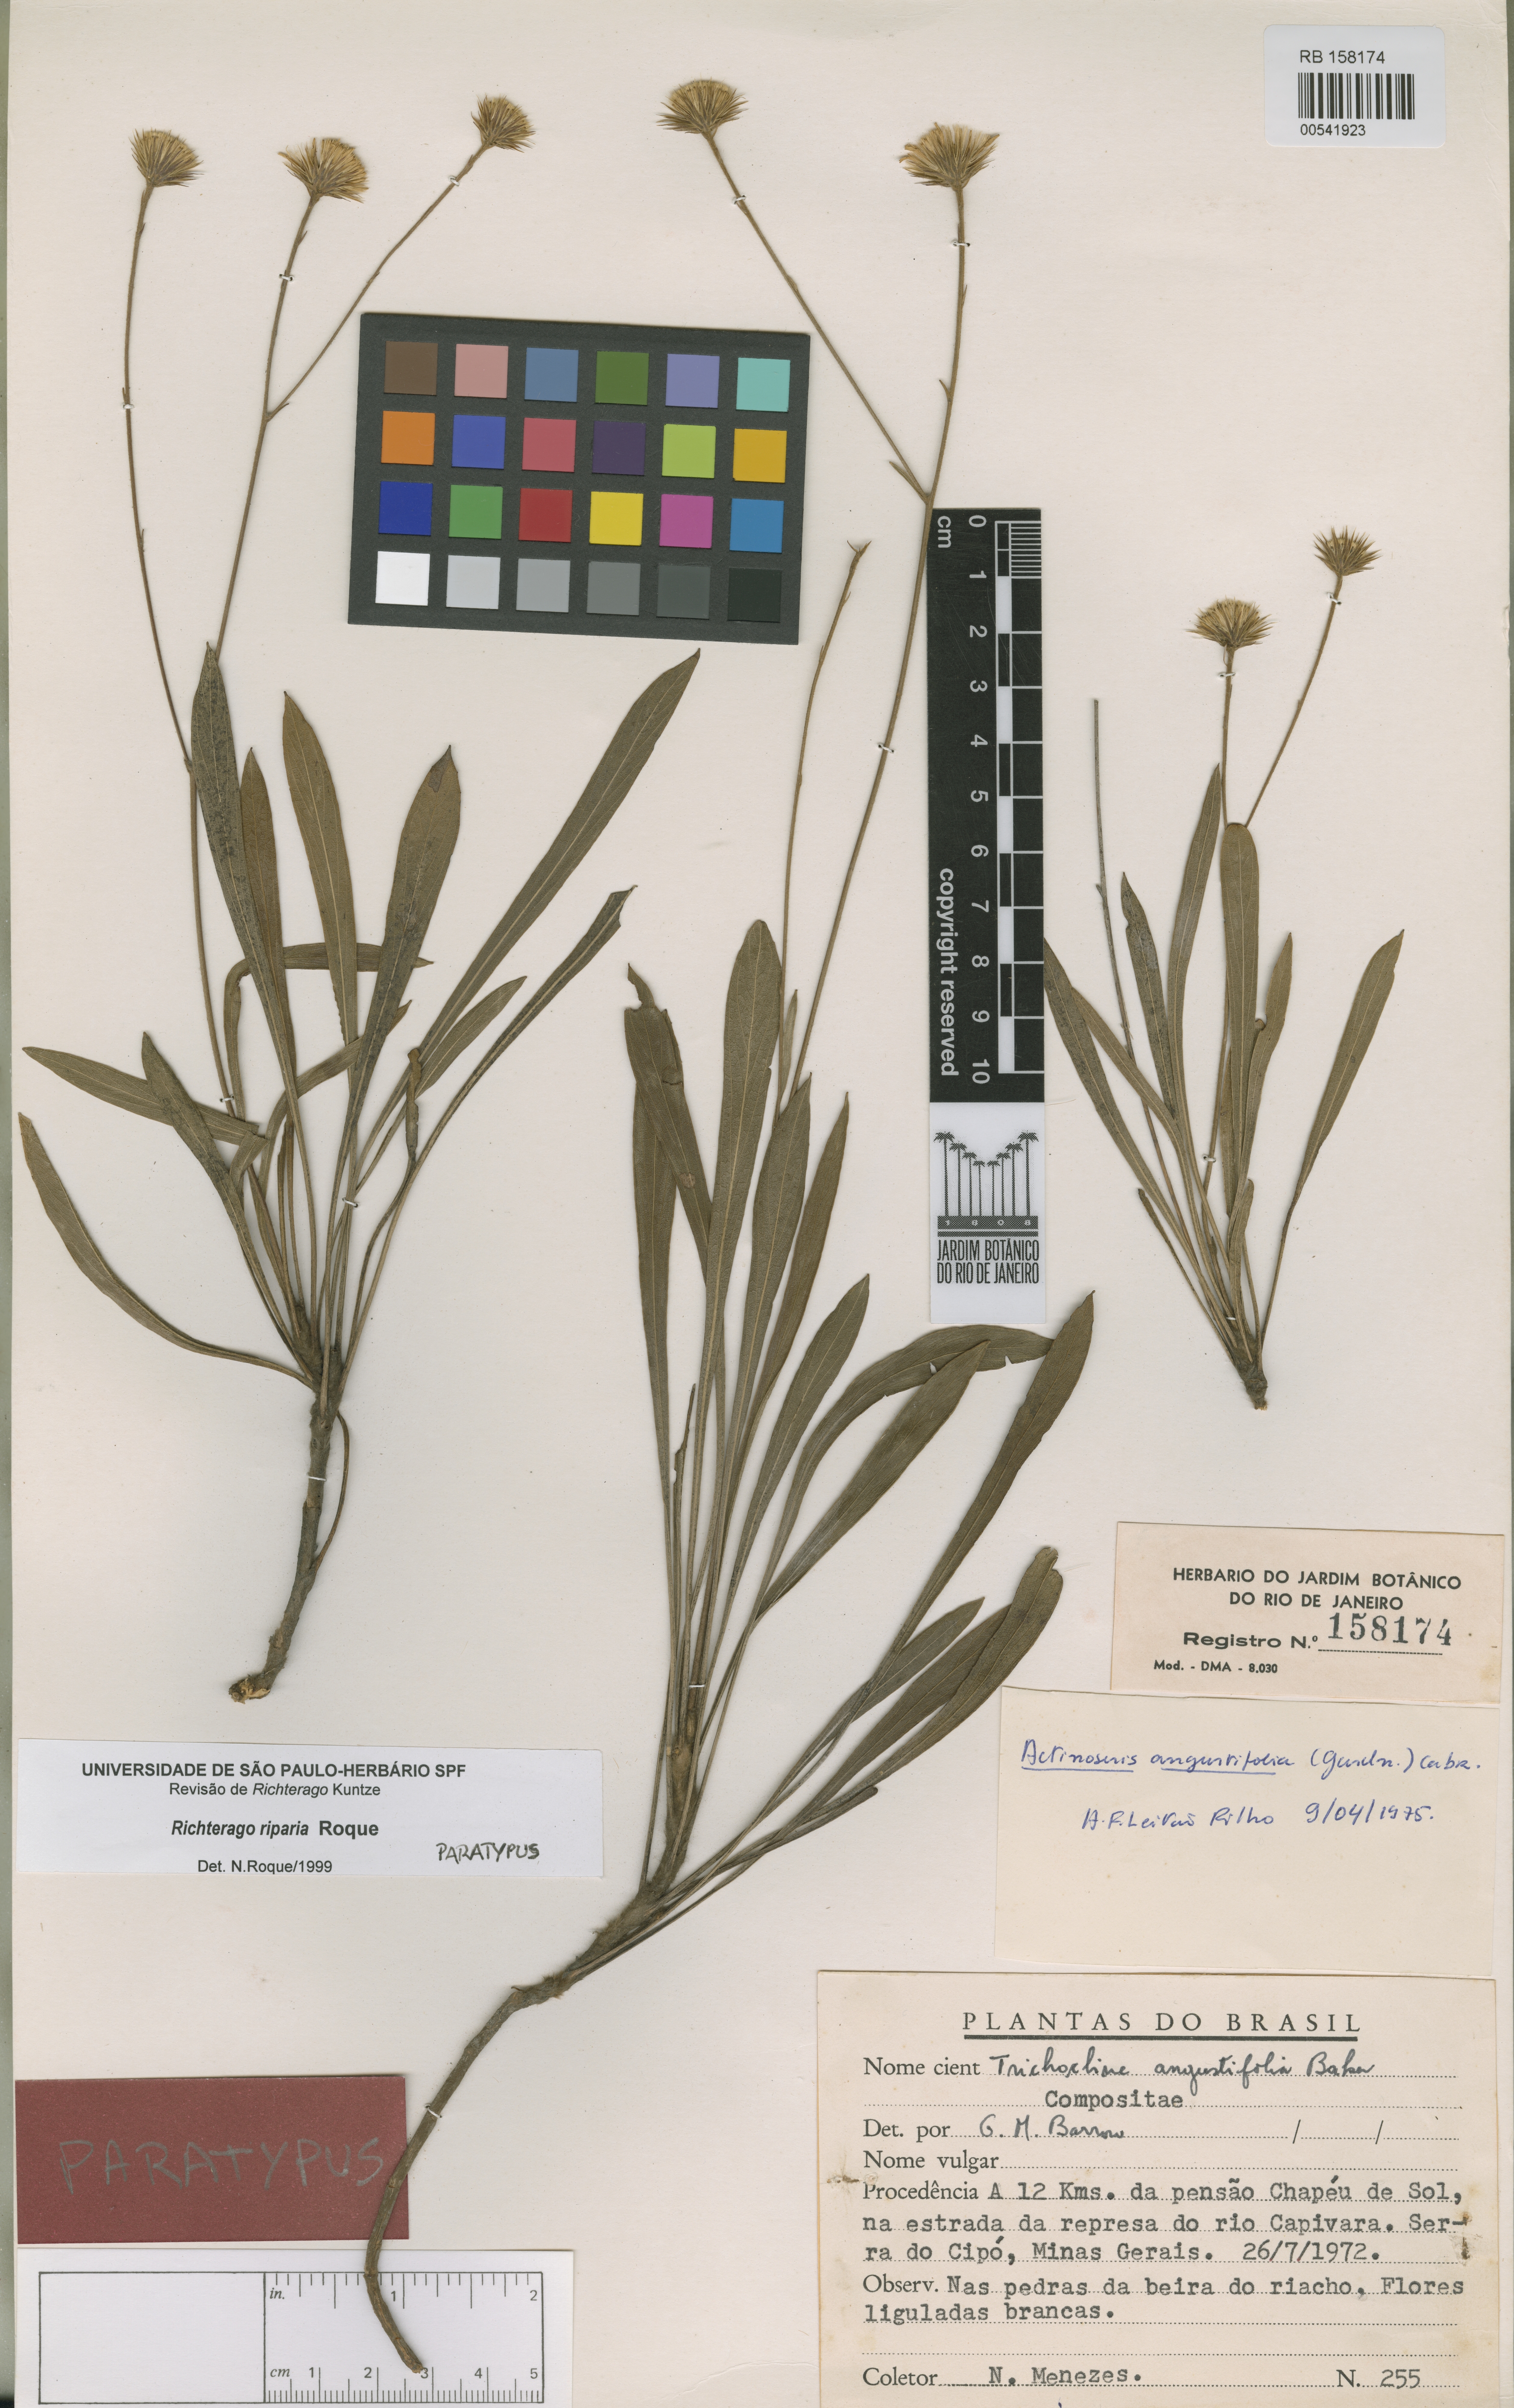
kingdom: Plantae
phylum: Tracheophyta
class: Magnoliopsida
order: Asterales
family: Asteraceae
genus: Richterago
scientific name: Richterago riparia
